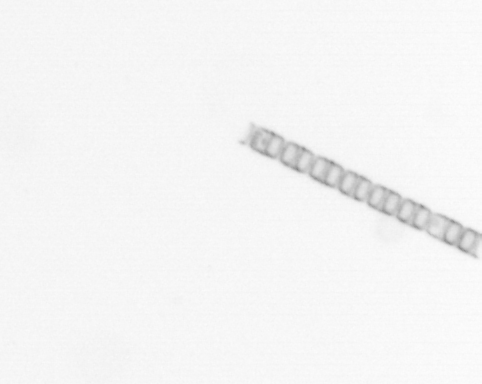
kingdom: Chromista
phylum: Ochrophyta
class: Bacillariophyceae
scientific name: Bacillariophyceae
